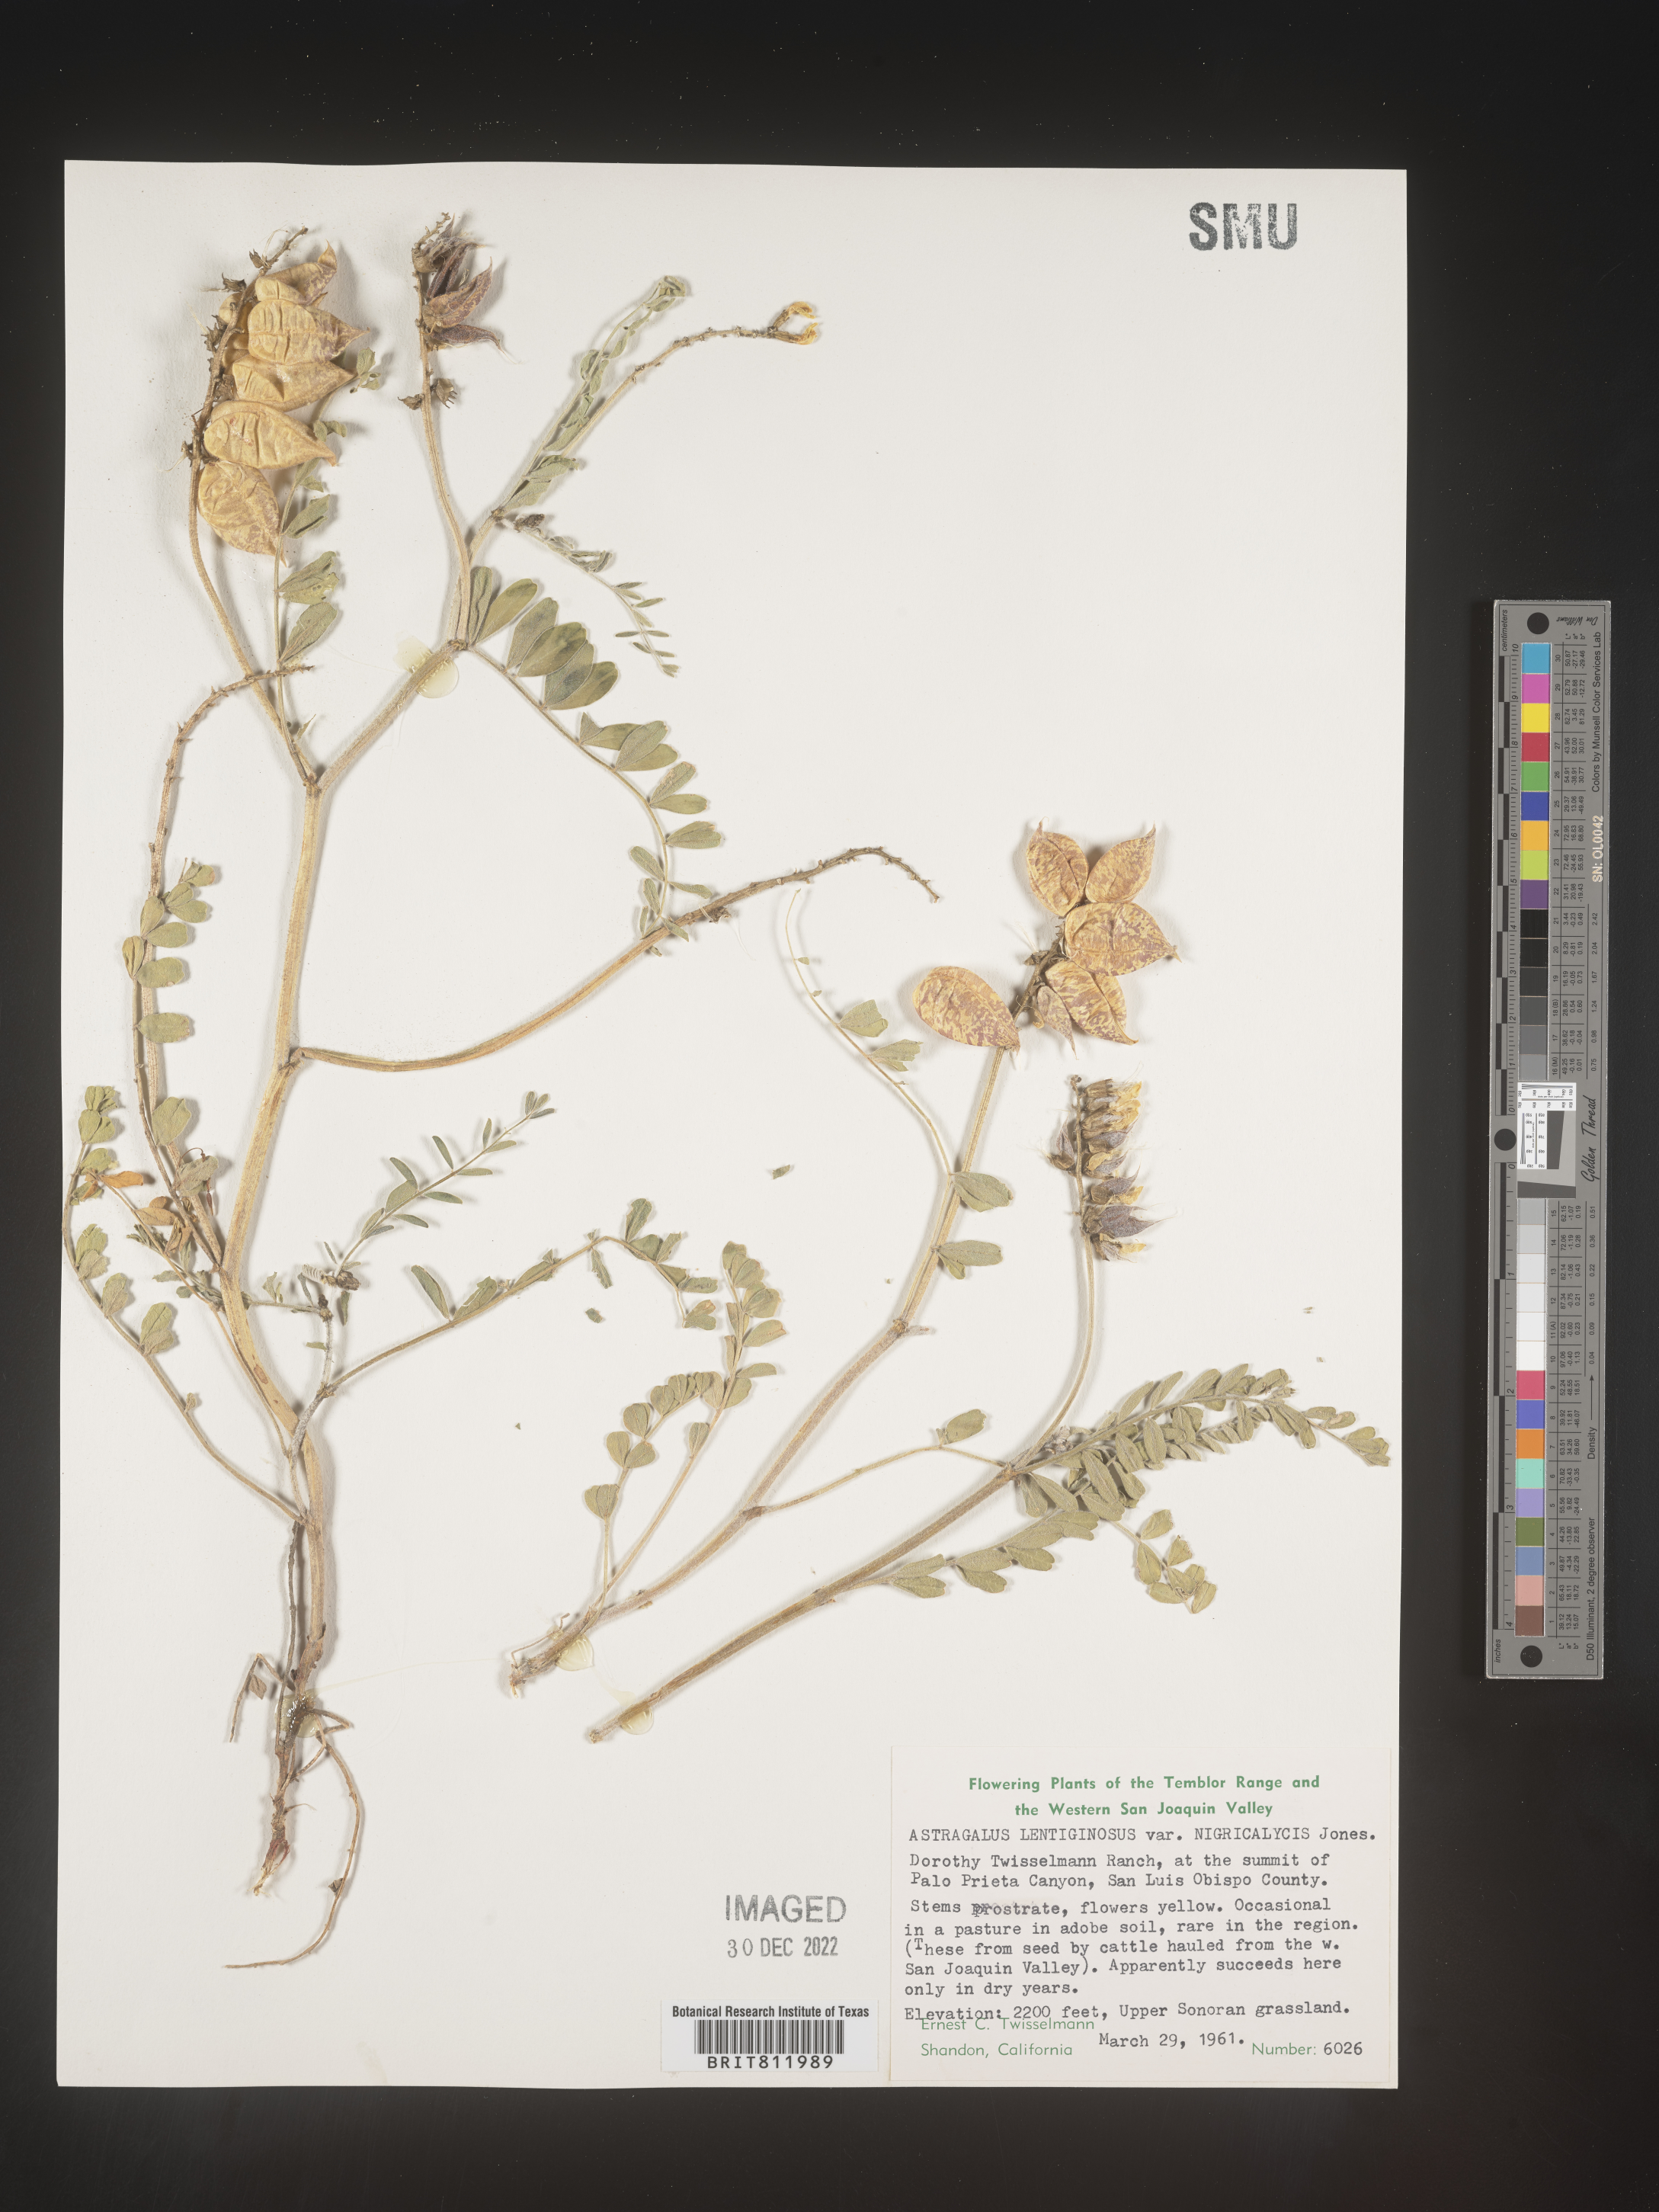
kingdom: Plantae
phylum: Tracheophyta
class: Magnoliopsida
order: Fabales
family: Fabaceae
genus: Astragalus
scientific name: Astragalus lentiginosus
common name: Freckled milkvetch
